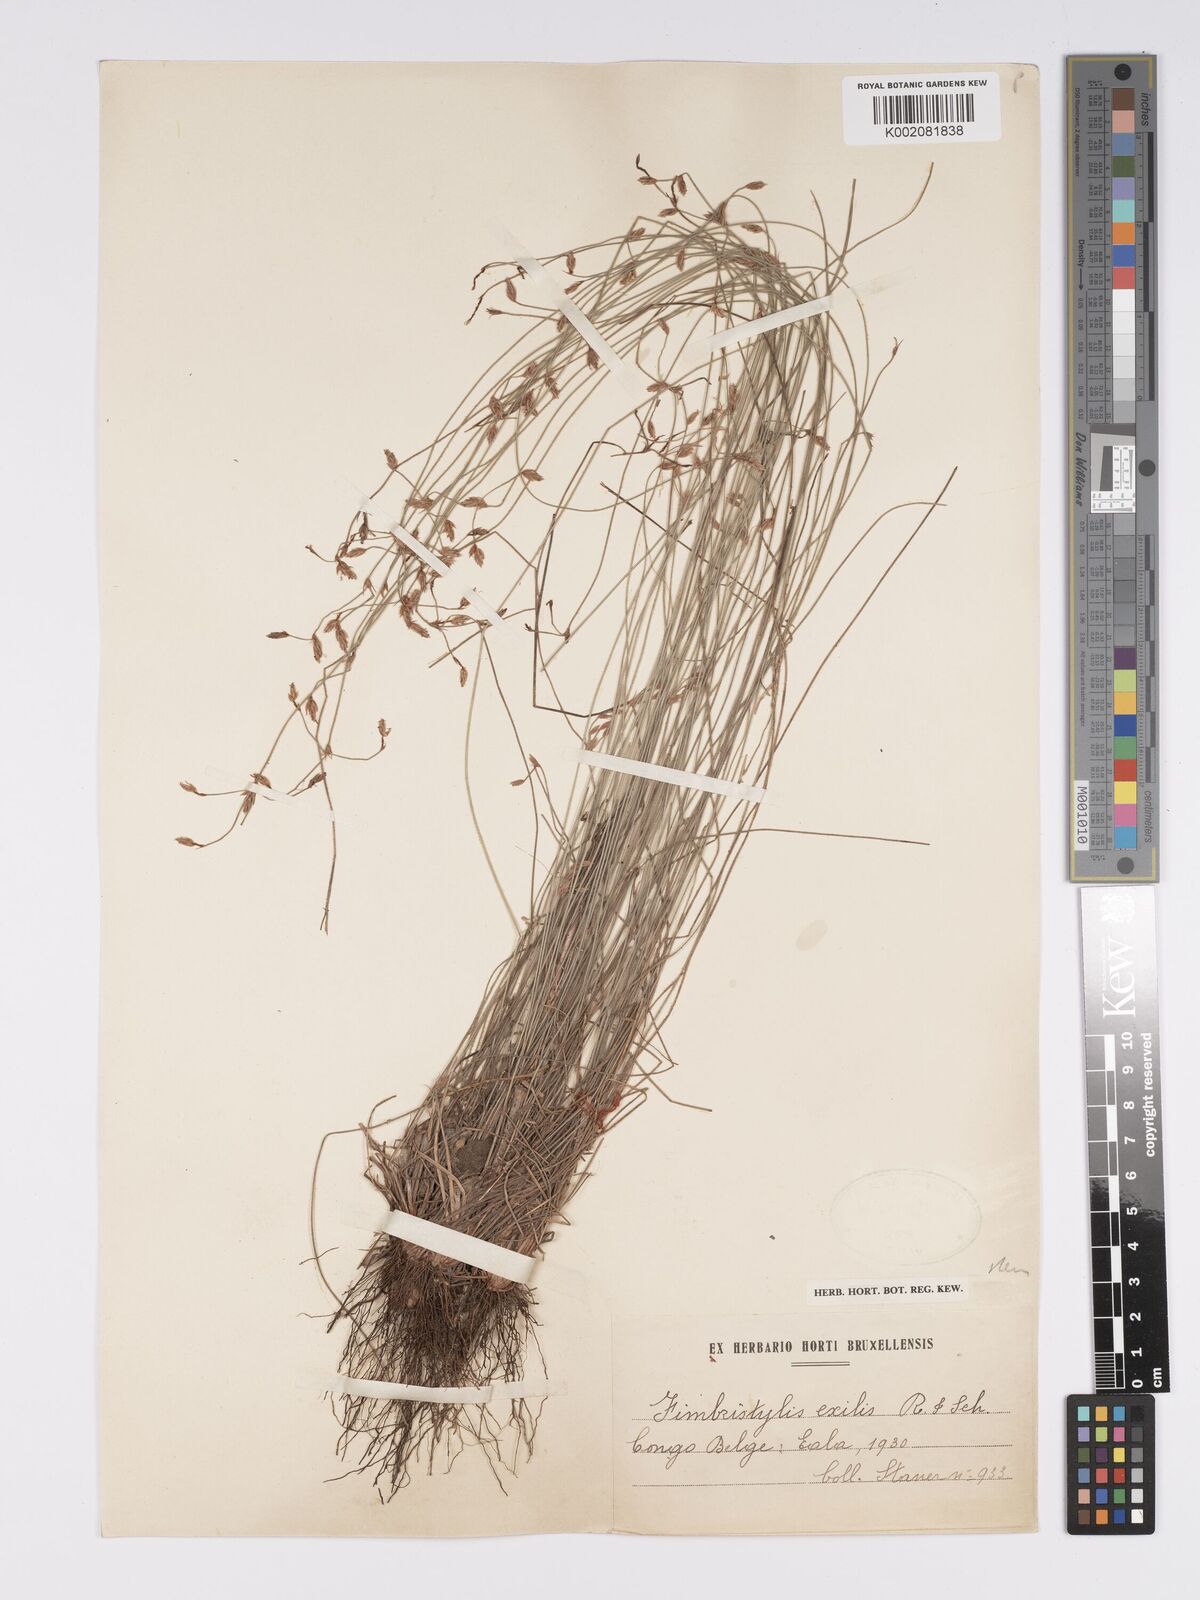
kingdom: Plantae
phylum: Tracheophyta
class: Liliopsida
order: Poales
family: Cyperaceae
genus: Bulbostylis
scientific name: Bulbostylis hispidula
